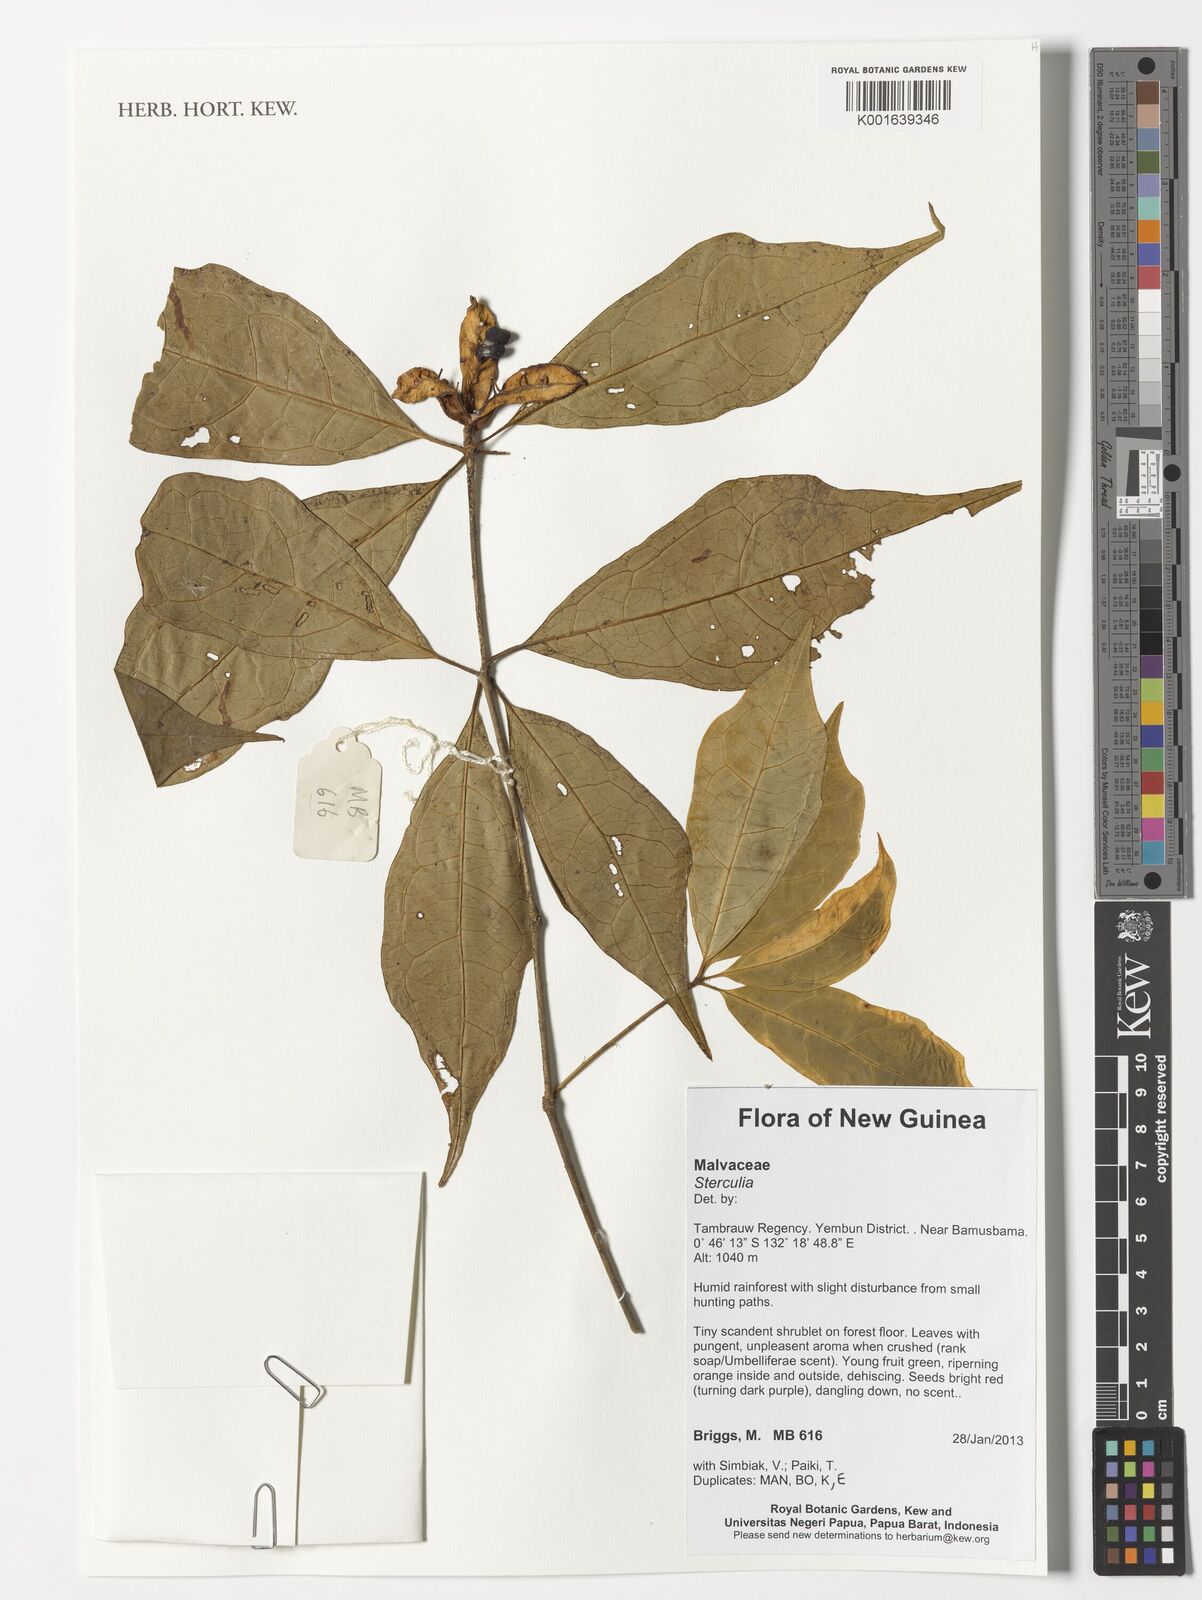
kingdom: Plantae
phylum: Tracheophyta
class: Magnoliopsida
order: Malvales
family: Malvaceae
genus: Sterculia
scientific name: Sterculia
